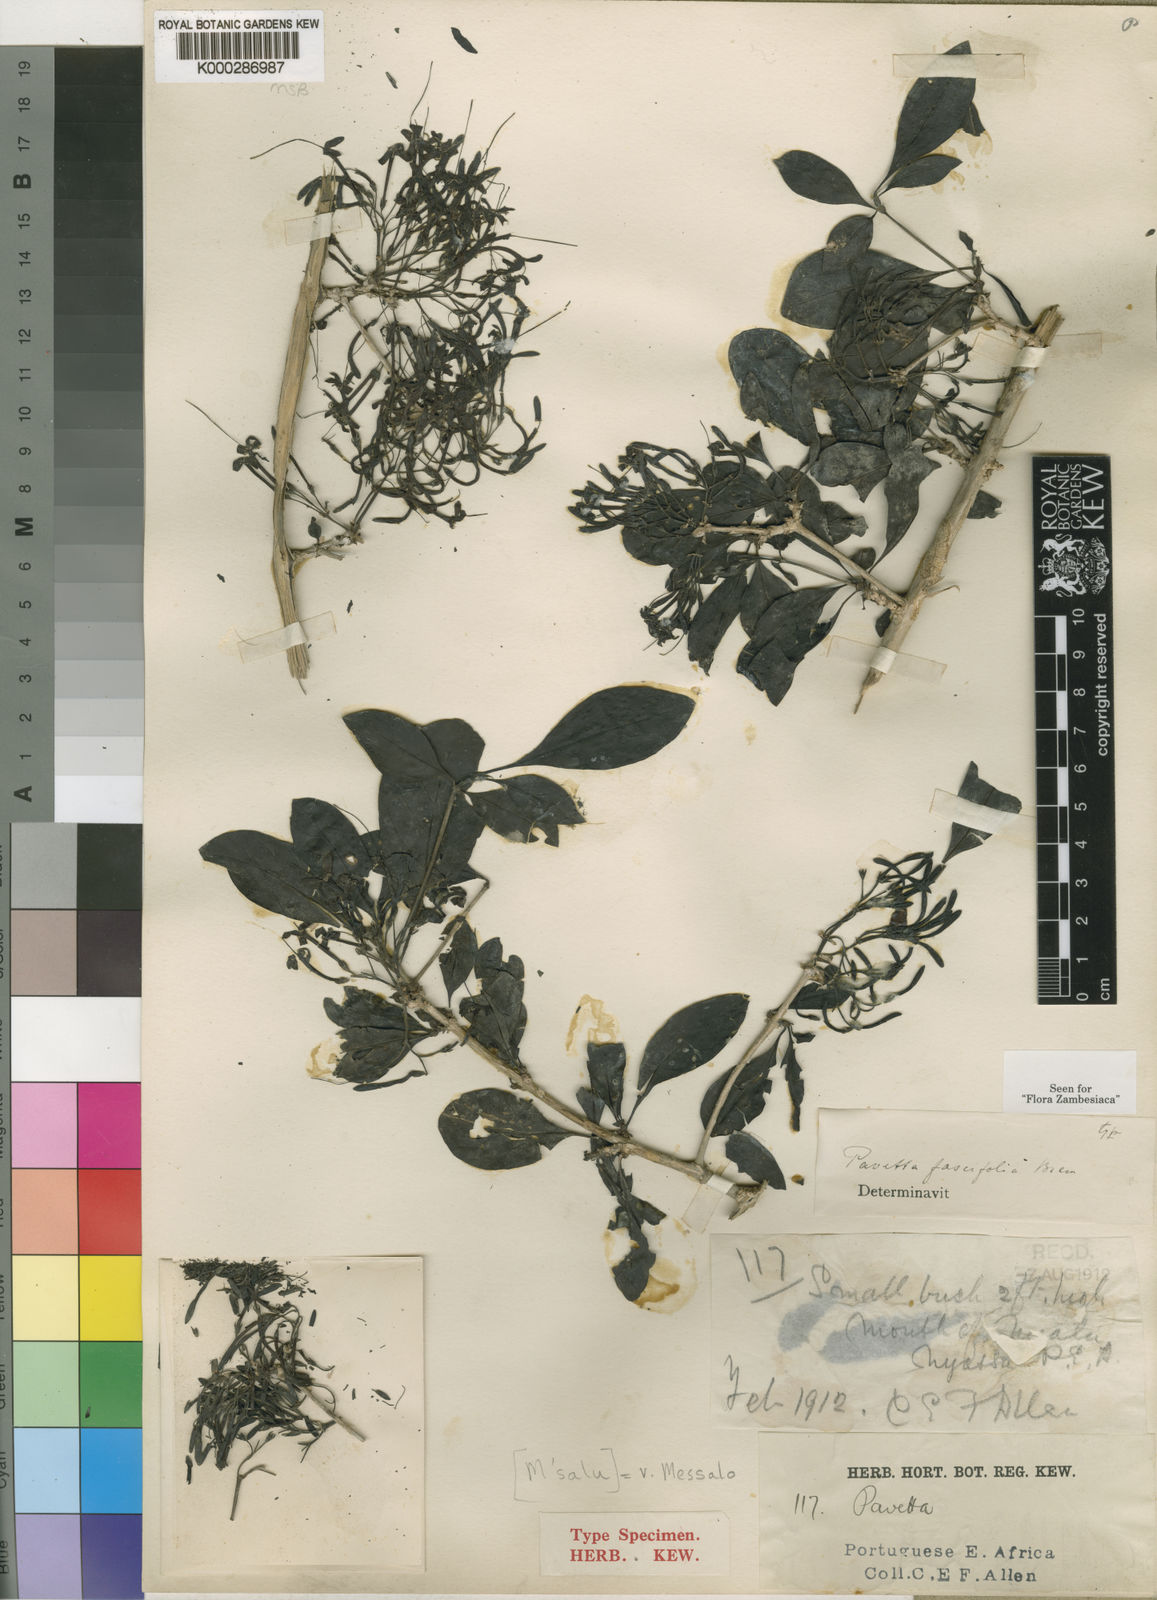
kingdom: Plantae
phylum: Tracheophyta
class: Magnoliopsida
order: Gentianales
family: Rubiaceae
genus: Pavetta
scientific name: Pavetta fascifolia
